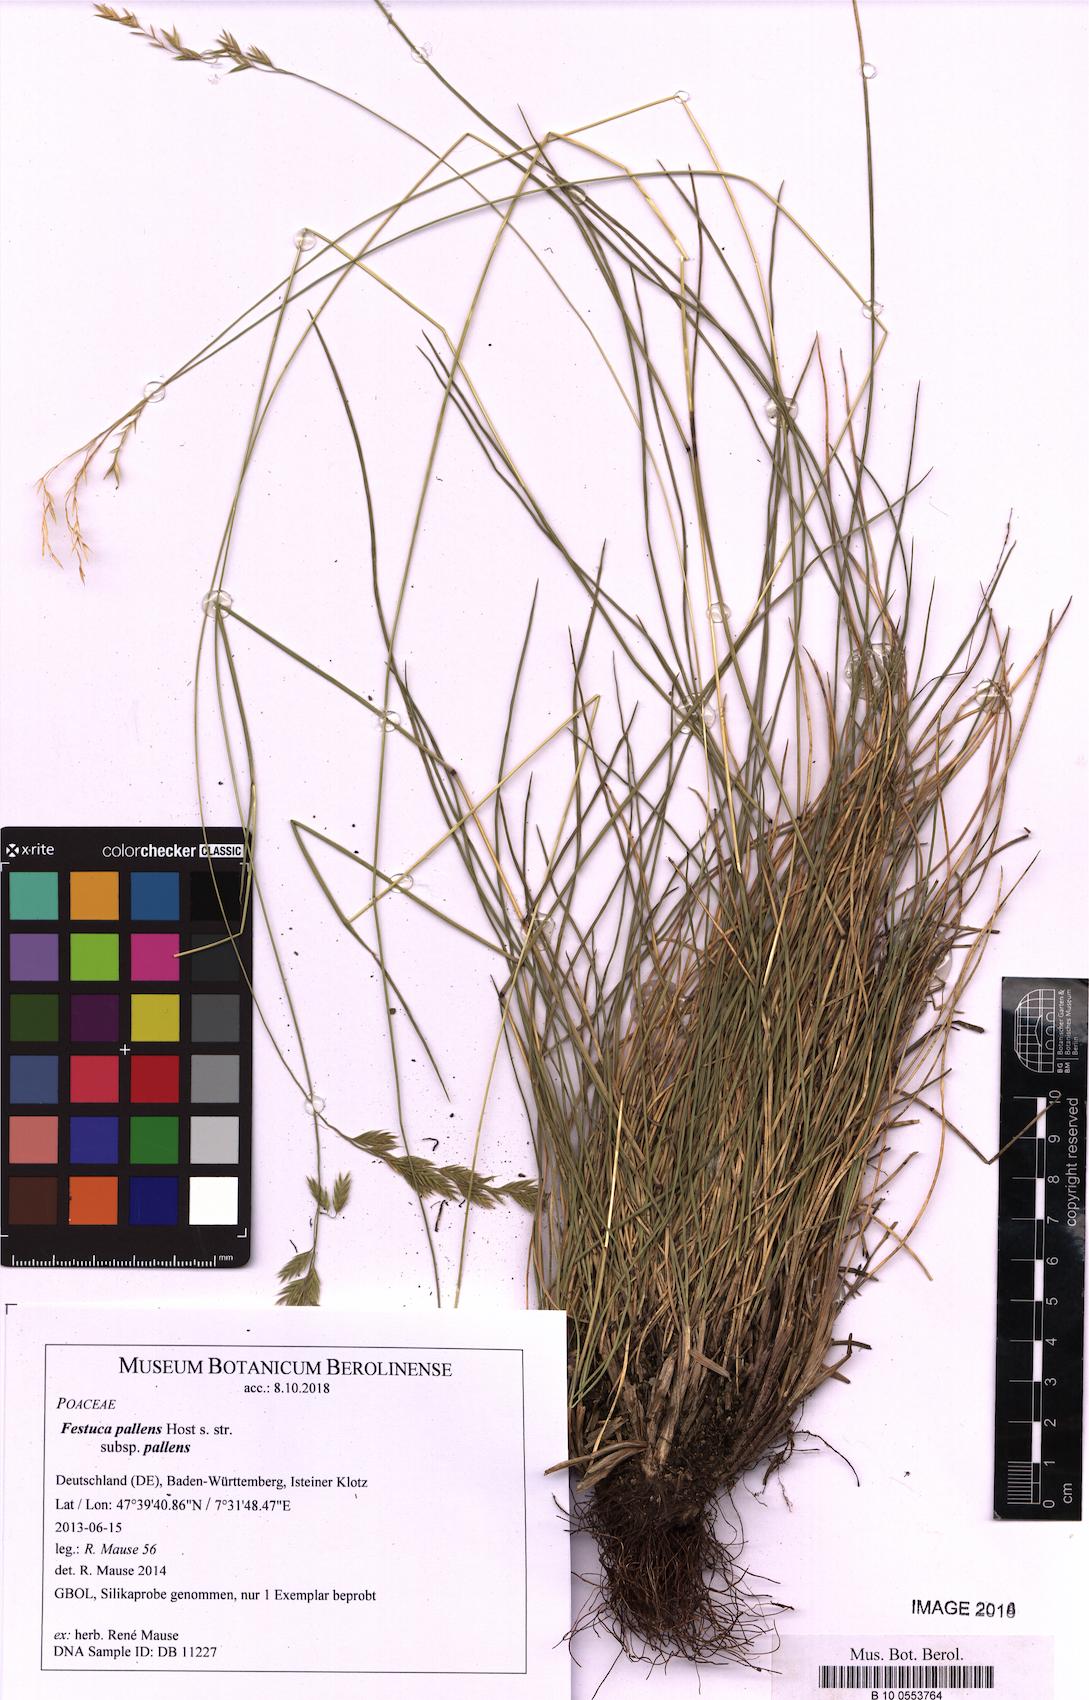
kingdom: Plantae
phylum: Tracheophyta
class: Liliopsida
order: Poales
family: Poaceae
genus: Festuca
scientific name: Festuca pallens
